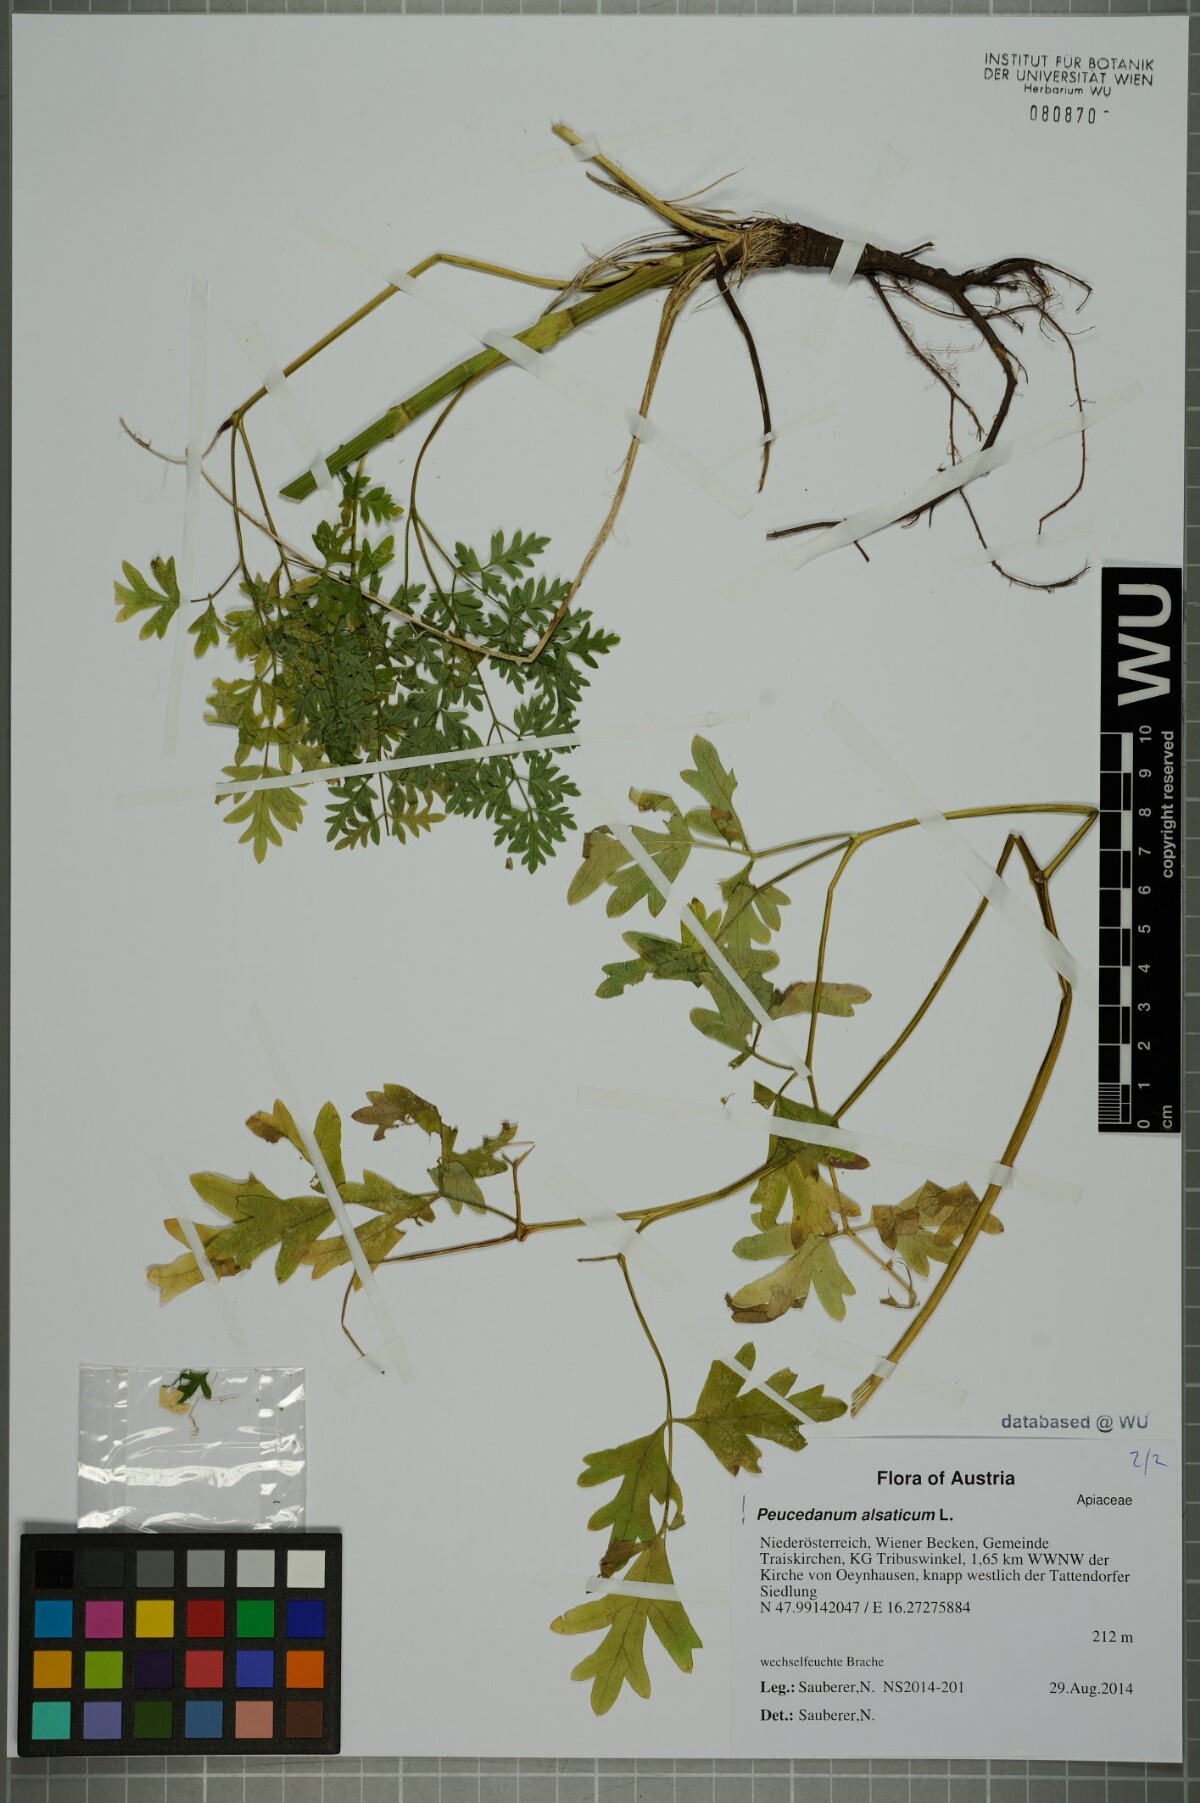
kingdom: Plantae
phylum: Tracheophyta
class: Magnoliopsida
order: Apiales
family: Apiaceae
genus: Xanthoselinum
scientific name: Xanthoselinum alsaticum
